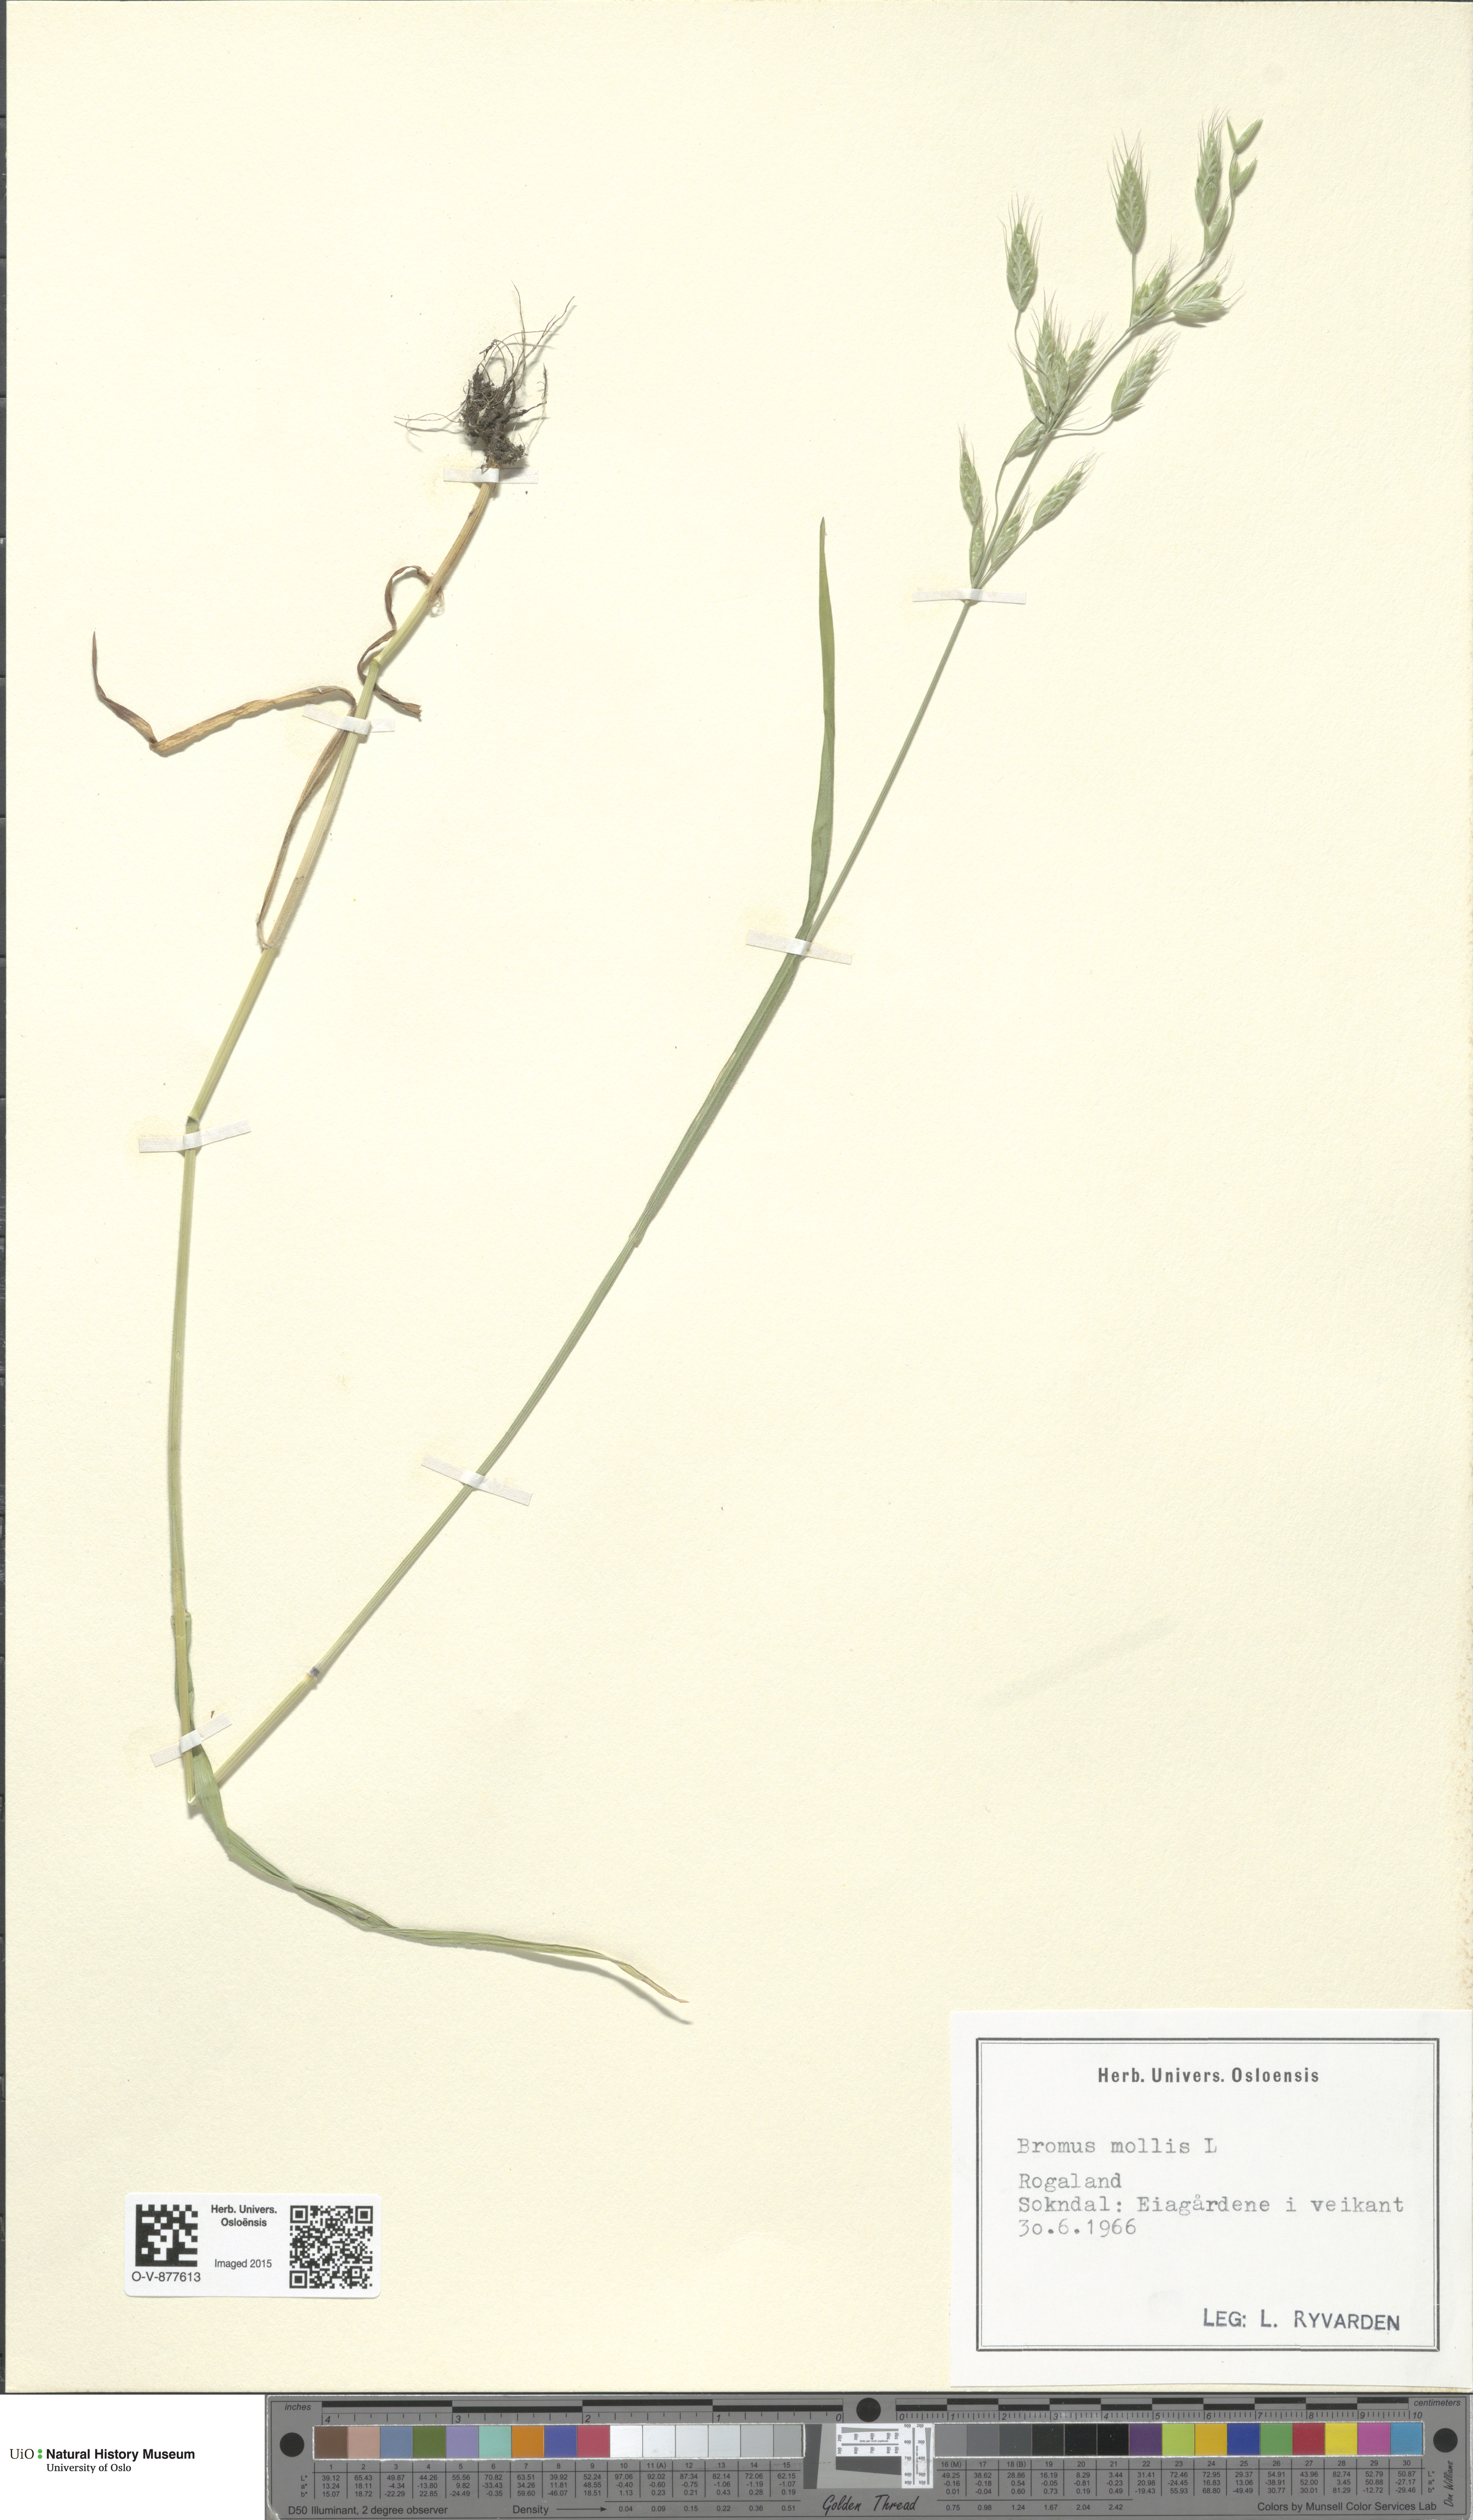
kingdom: Plantae
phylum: Tracheophyta
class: Liliopsida
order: Poales
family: Poaceae
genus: Bromus
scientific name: Bromus hordeaceus
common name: Soft brome
